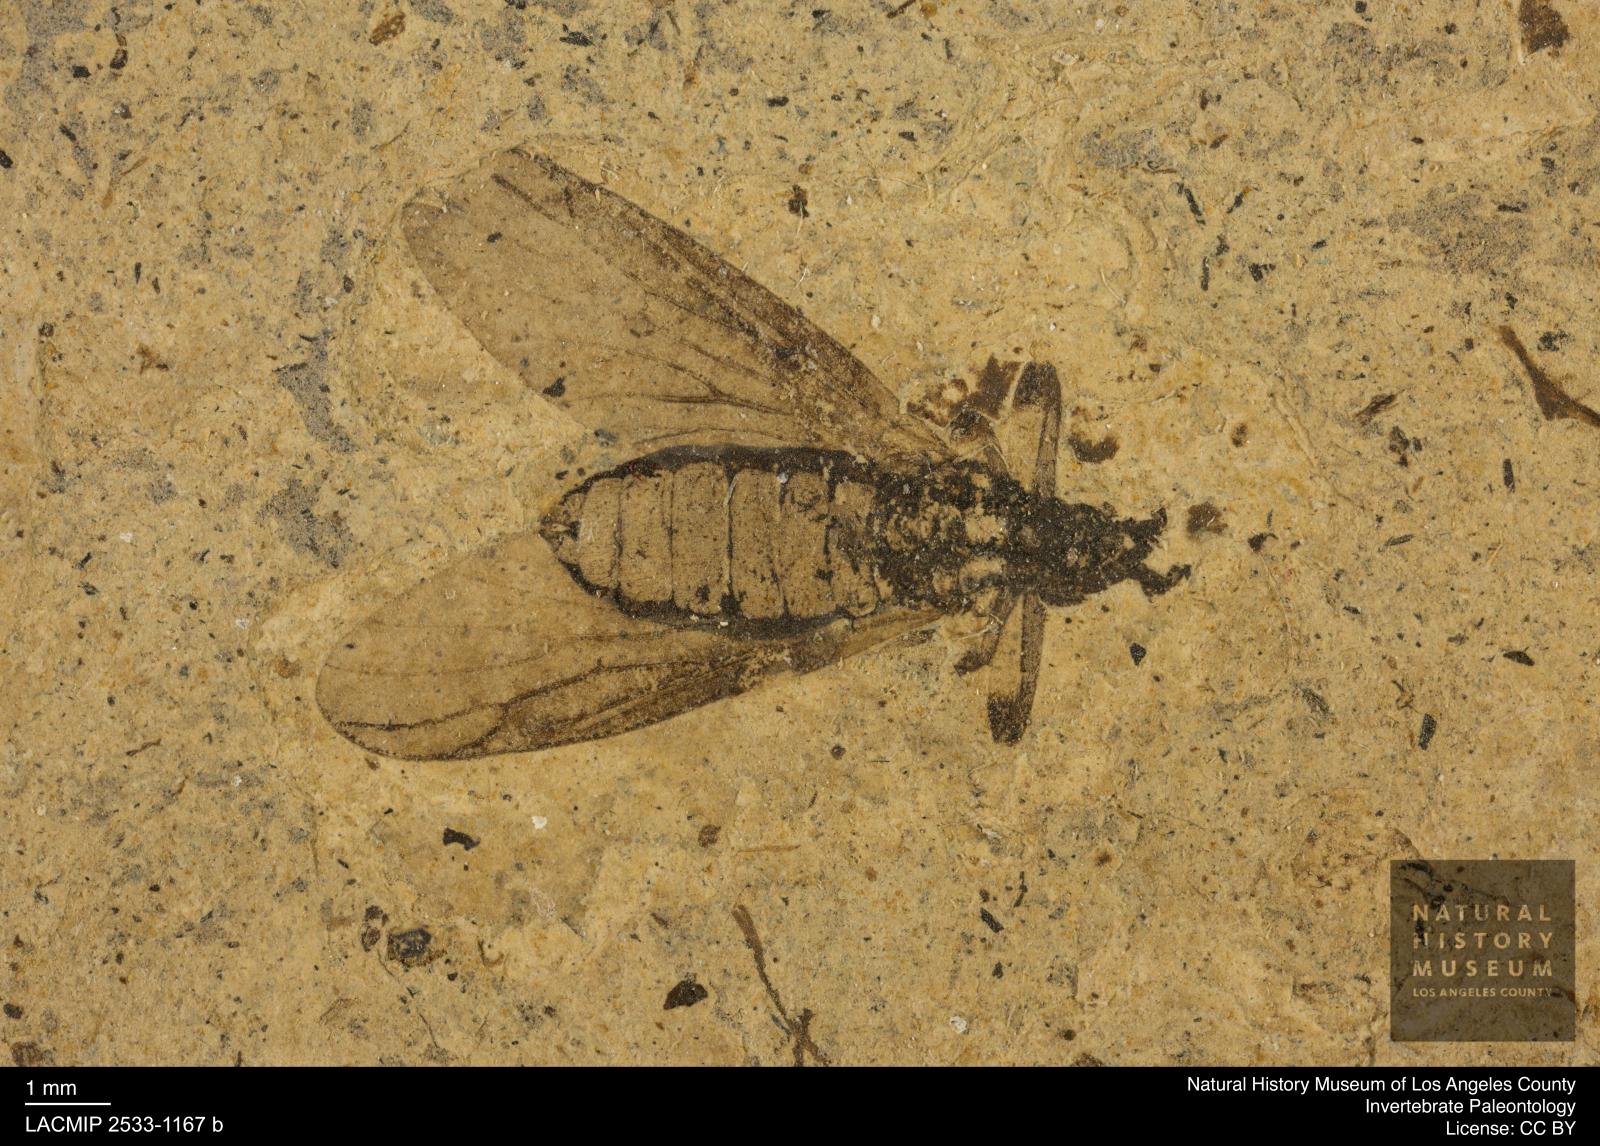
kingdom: Animalia
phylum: Arthropoda
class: Insecta
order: Diptera
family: Bibionidae
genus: Plecia
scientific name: Plecia proserpina
